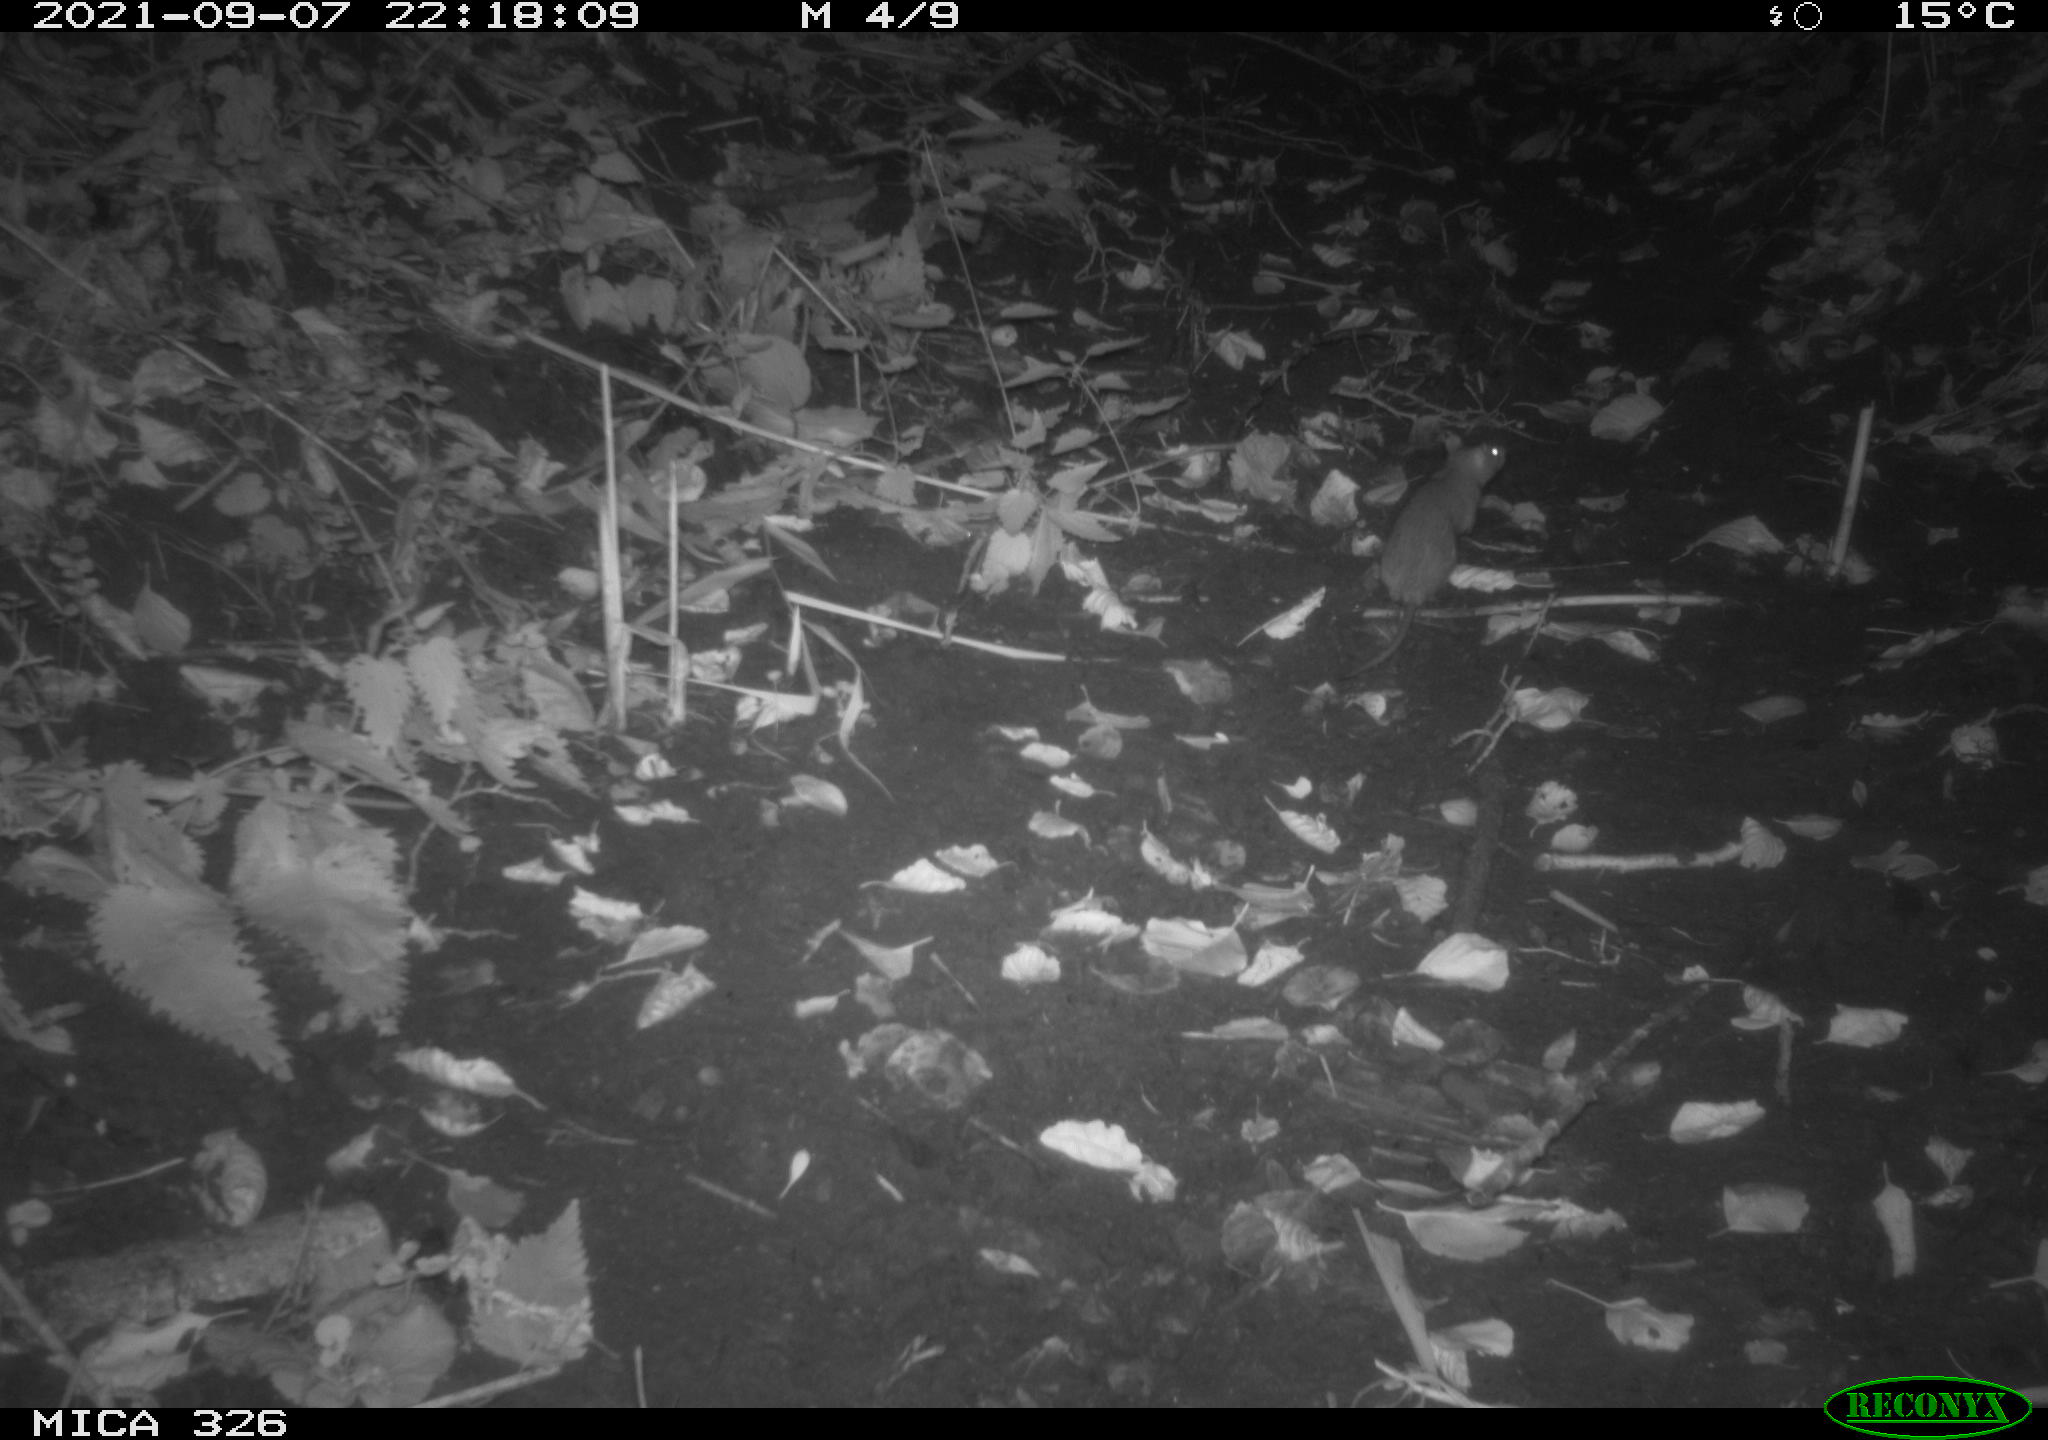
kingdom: Animalia
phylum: Chordata
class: Mammalia
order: Rodentia
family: Muridae
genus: Rattus
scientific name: Rattus norvegicus
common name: Brown rat
